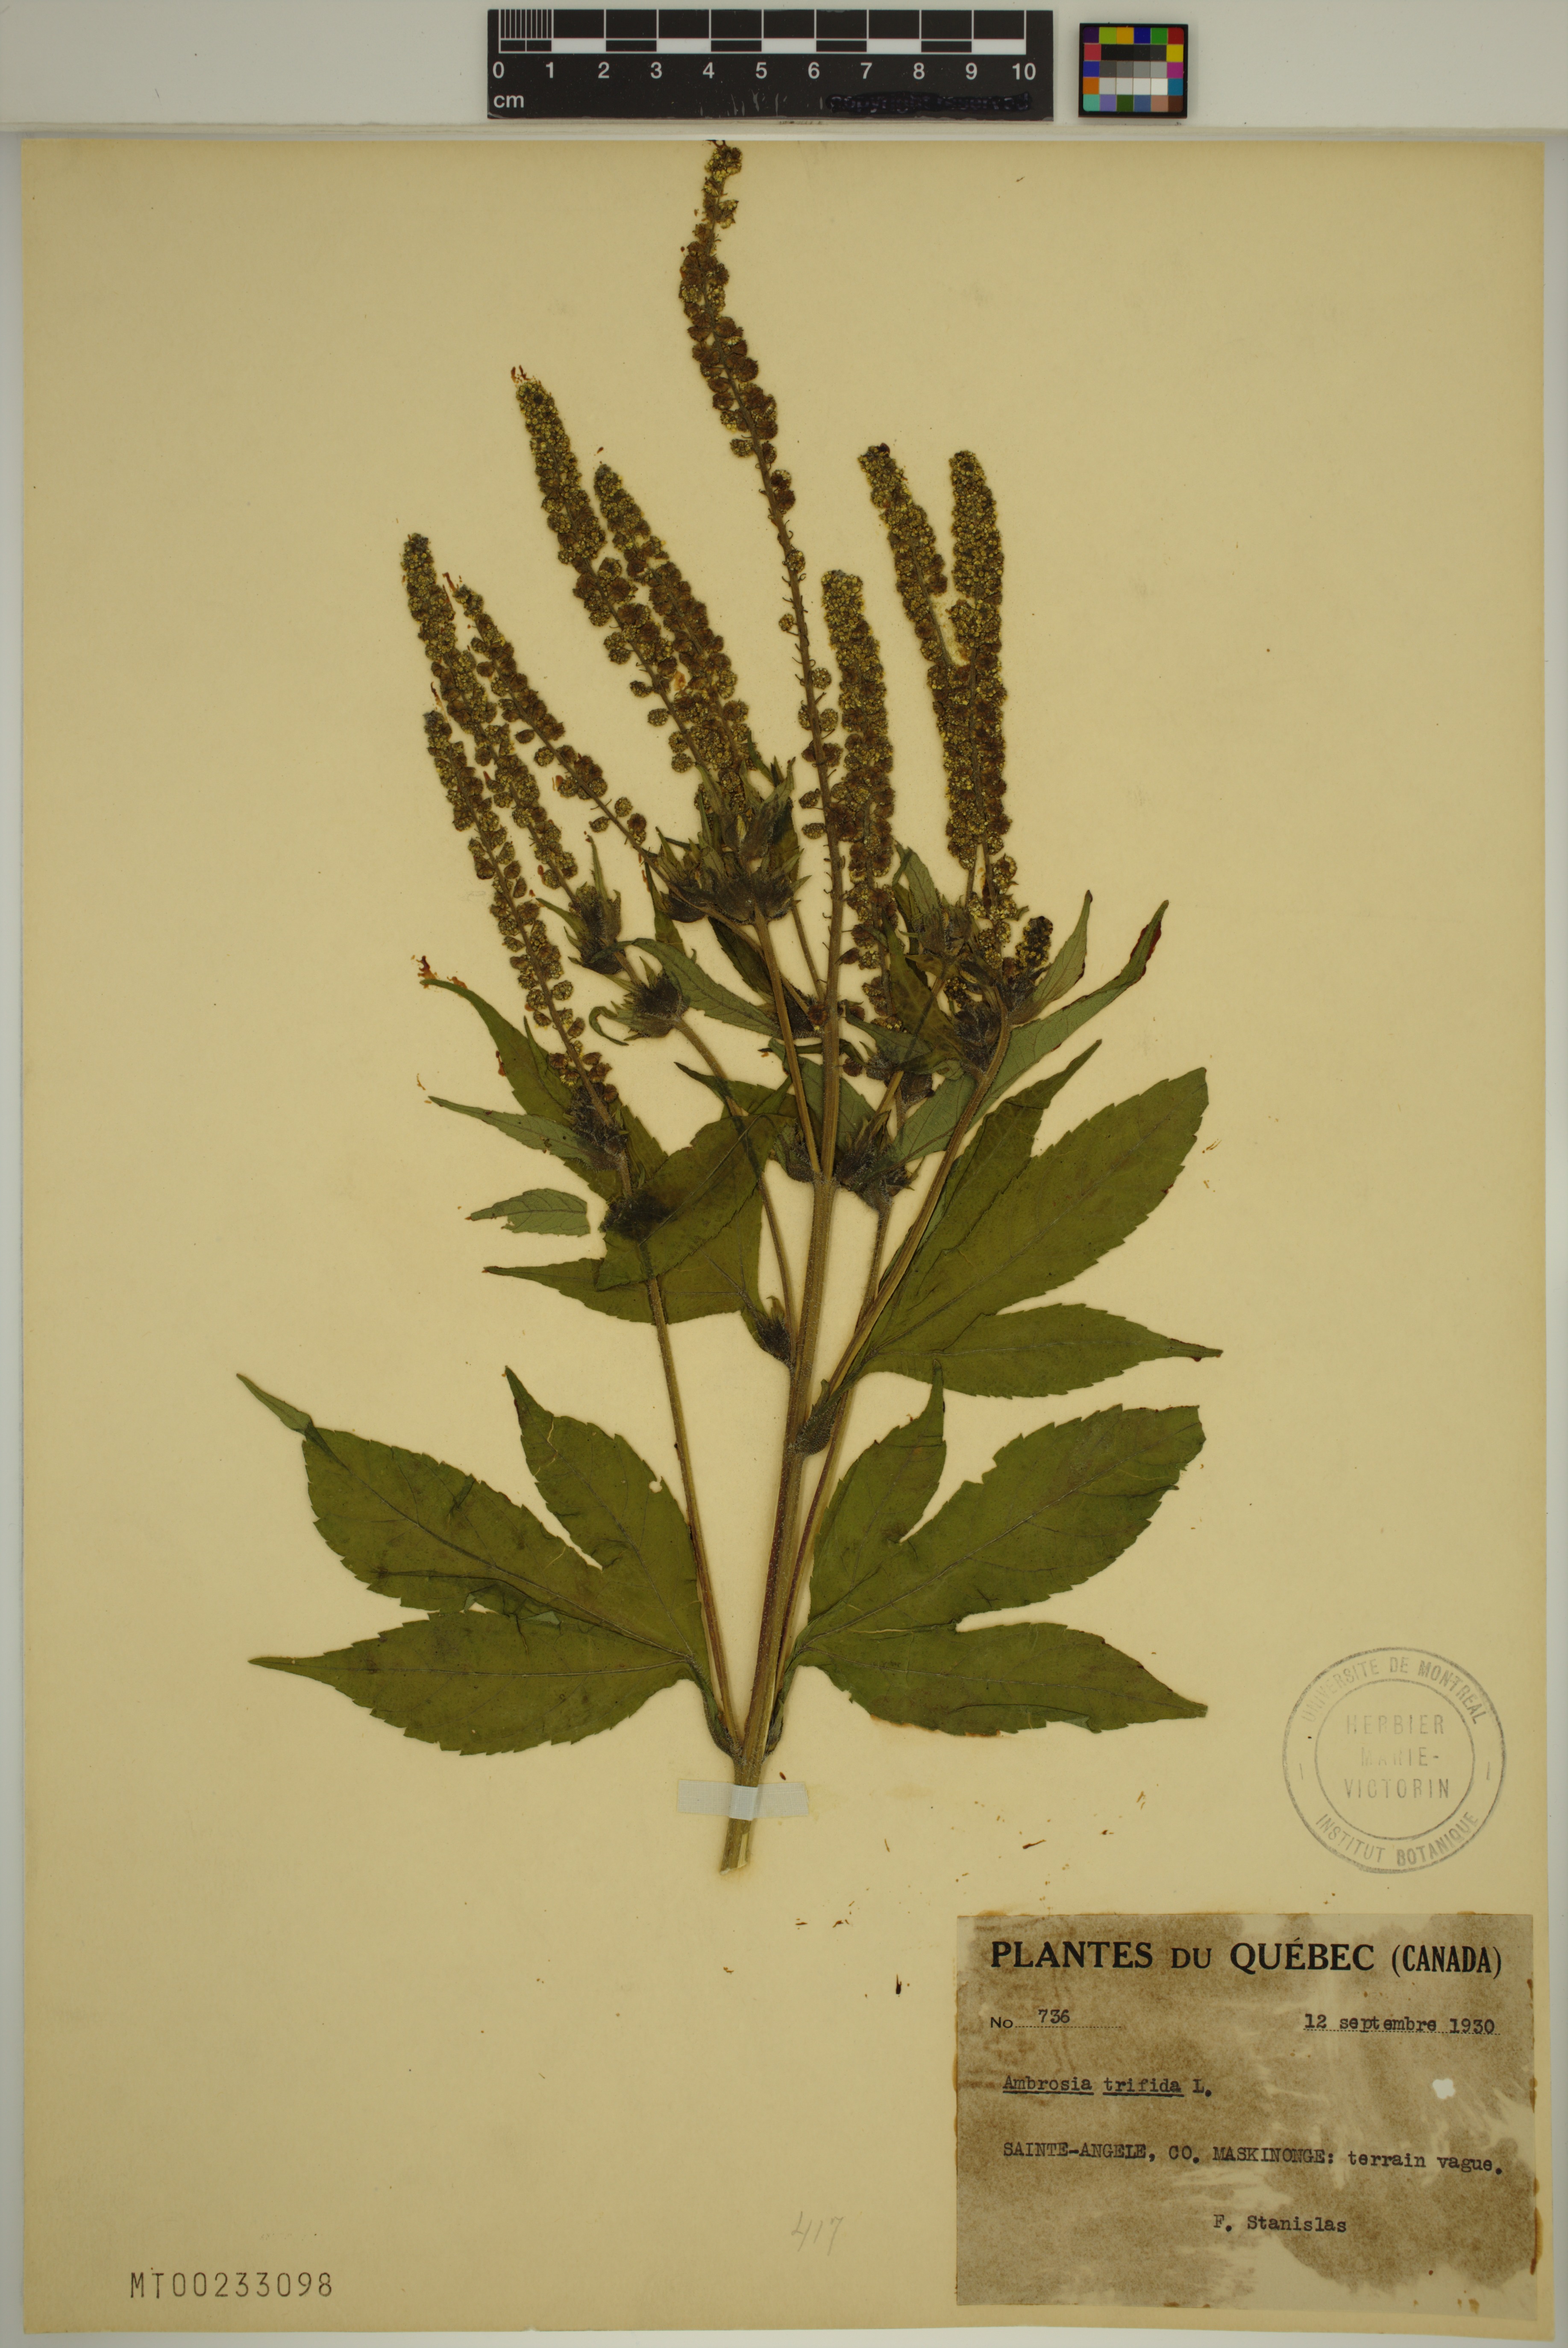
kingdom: Plantae
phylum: Tracheophyta
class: Magnoliopsida
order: Asterales
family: Asteraceae
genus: Ambrosia
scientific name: Ambrosia trifida
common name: Giant ragweed
